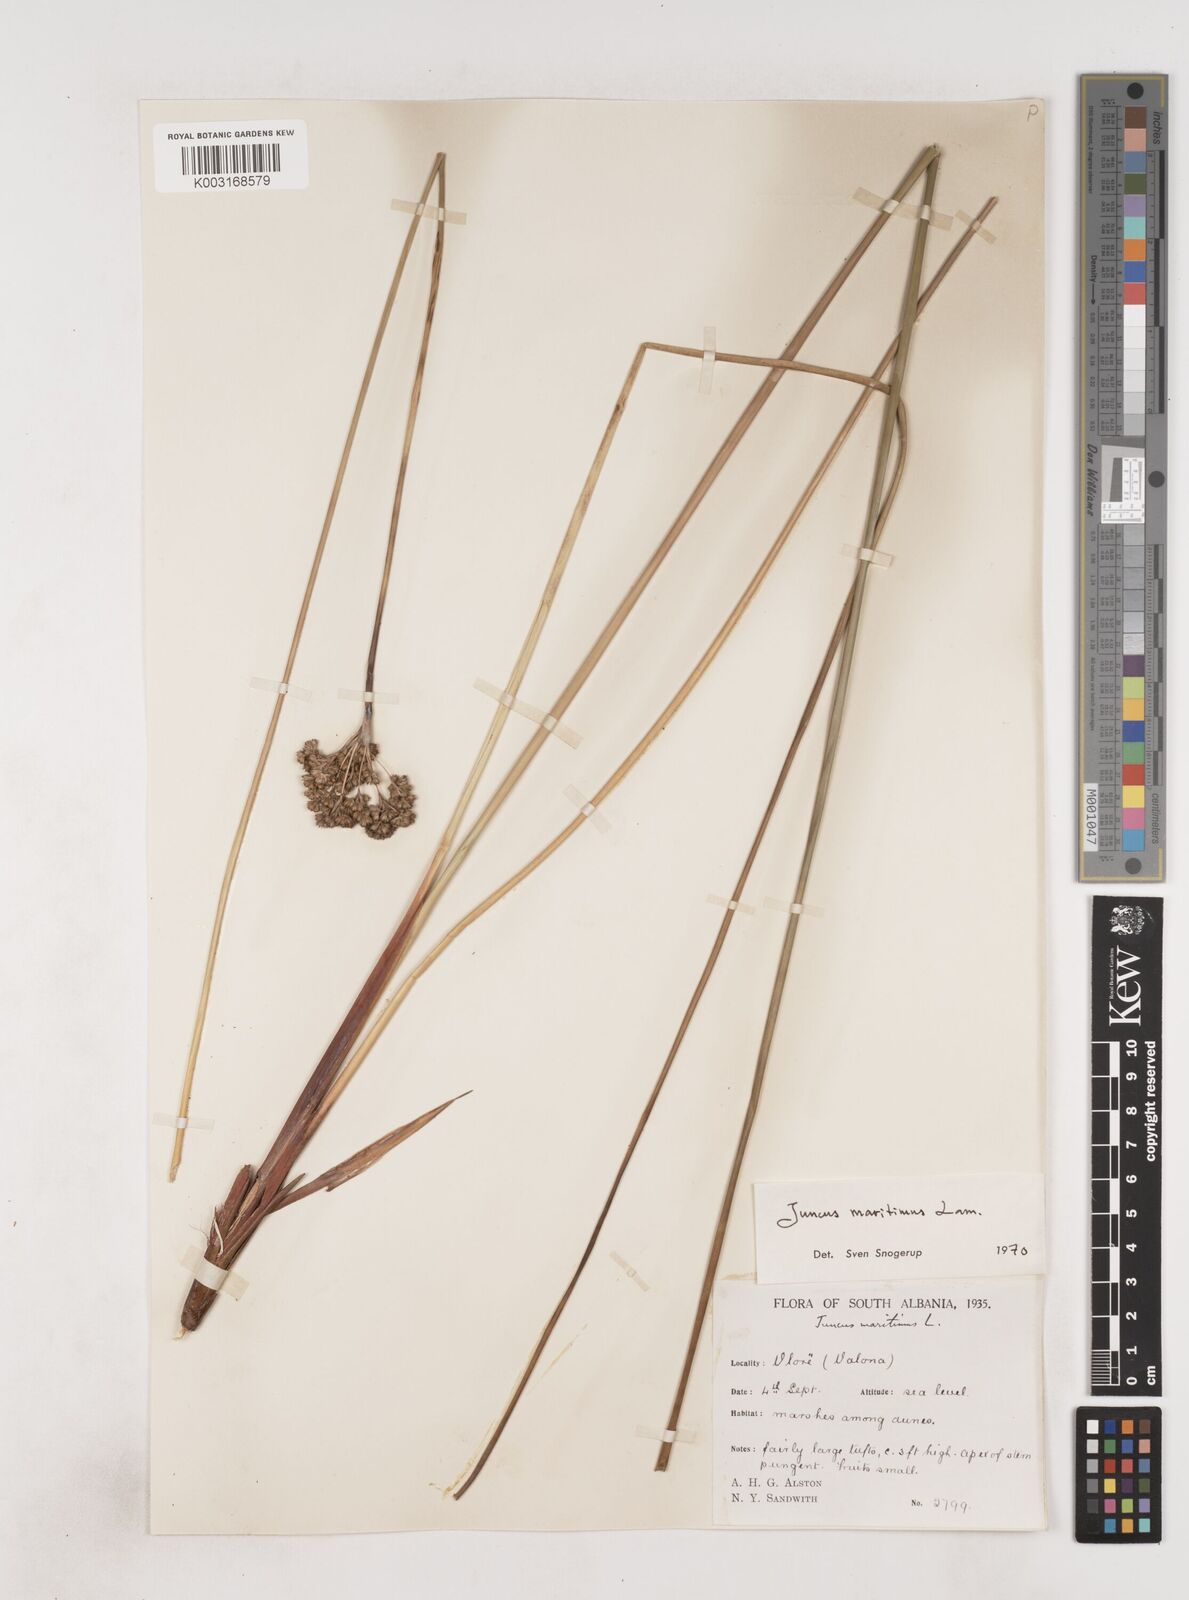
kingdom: Plantae
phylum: Tracheophyta
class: Liliopsida
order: Poales
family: Juncaceae
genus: Juncus
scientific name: Juncus maritimus
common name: Sea rush
